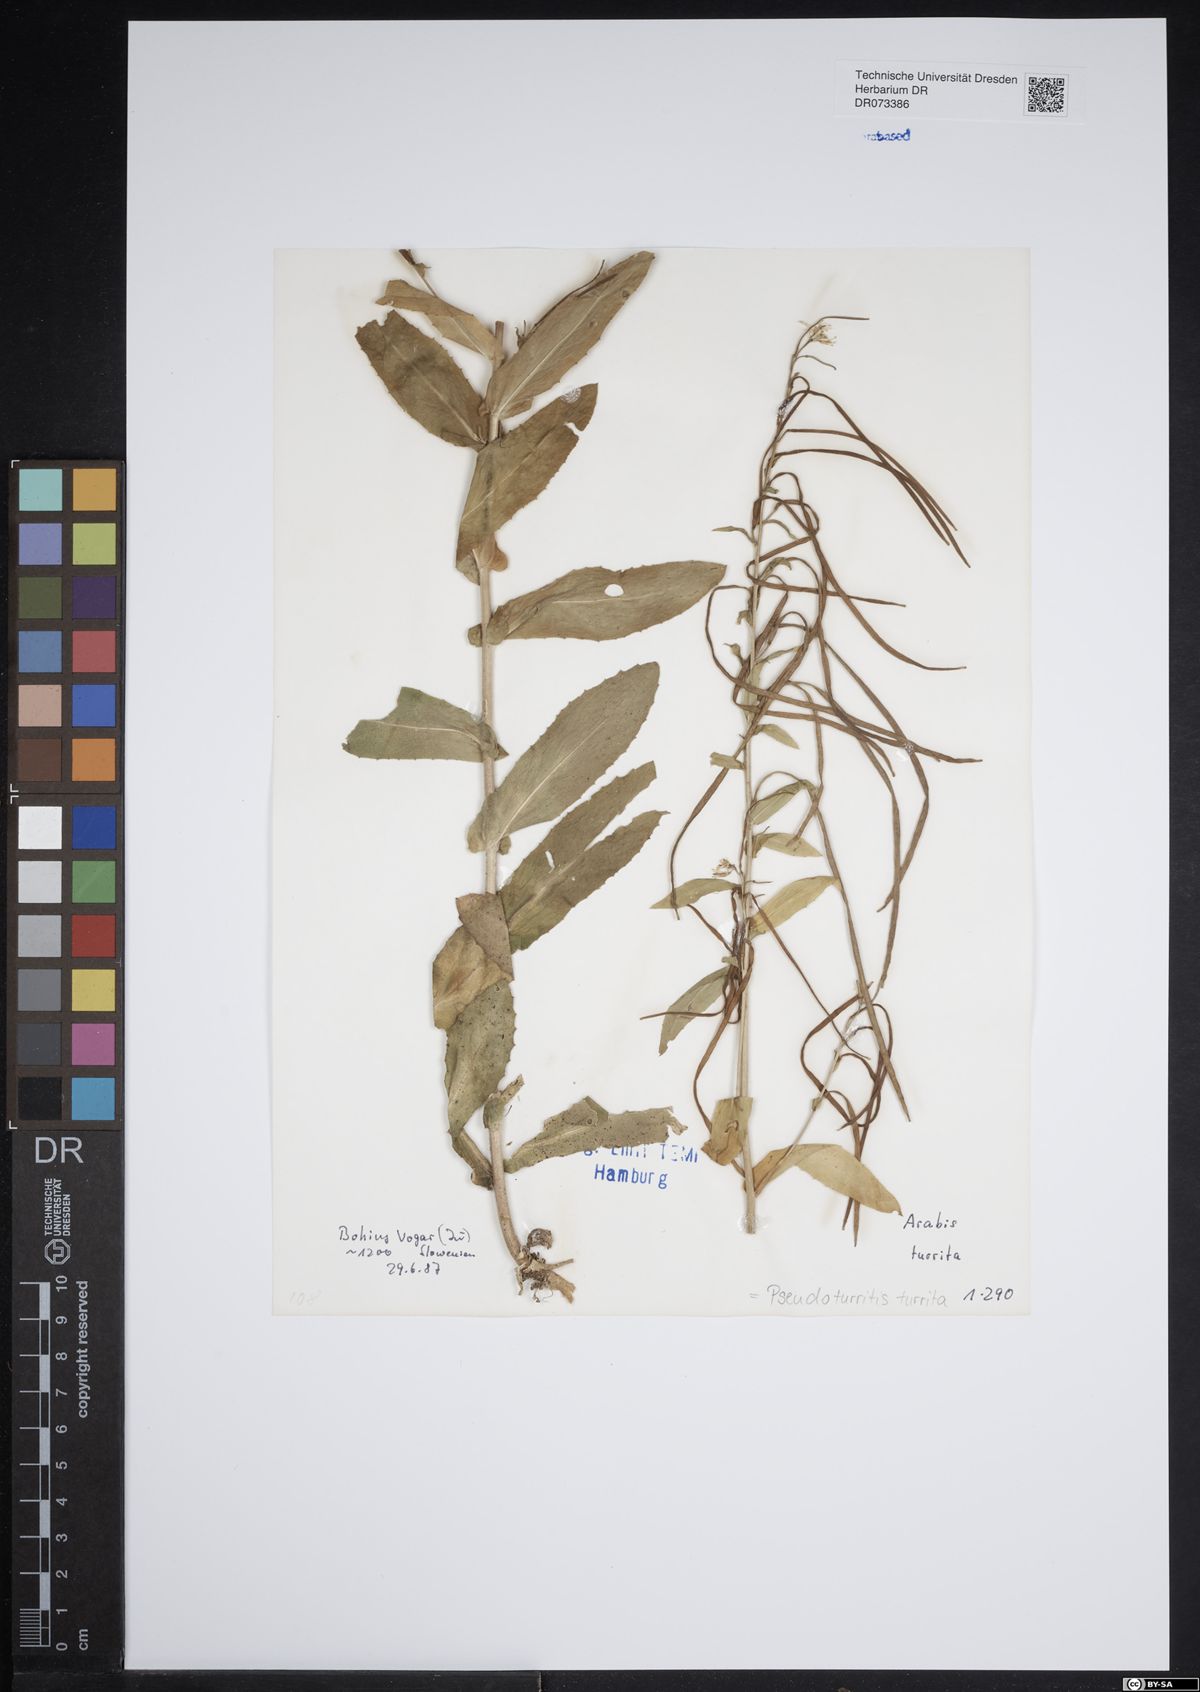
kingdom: Plantae
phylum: Tracheophyta
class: Magnoliopsida
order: Brassicales
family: Brassicaceae
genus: Pseudoturritis
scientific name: Pseudoturritis turrita
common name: Tower cress
